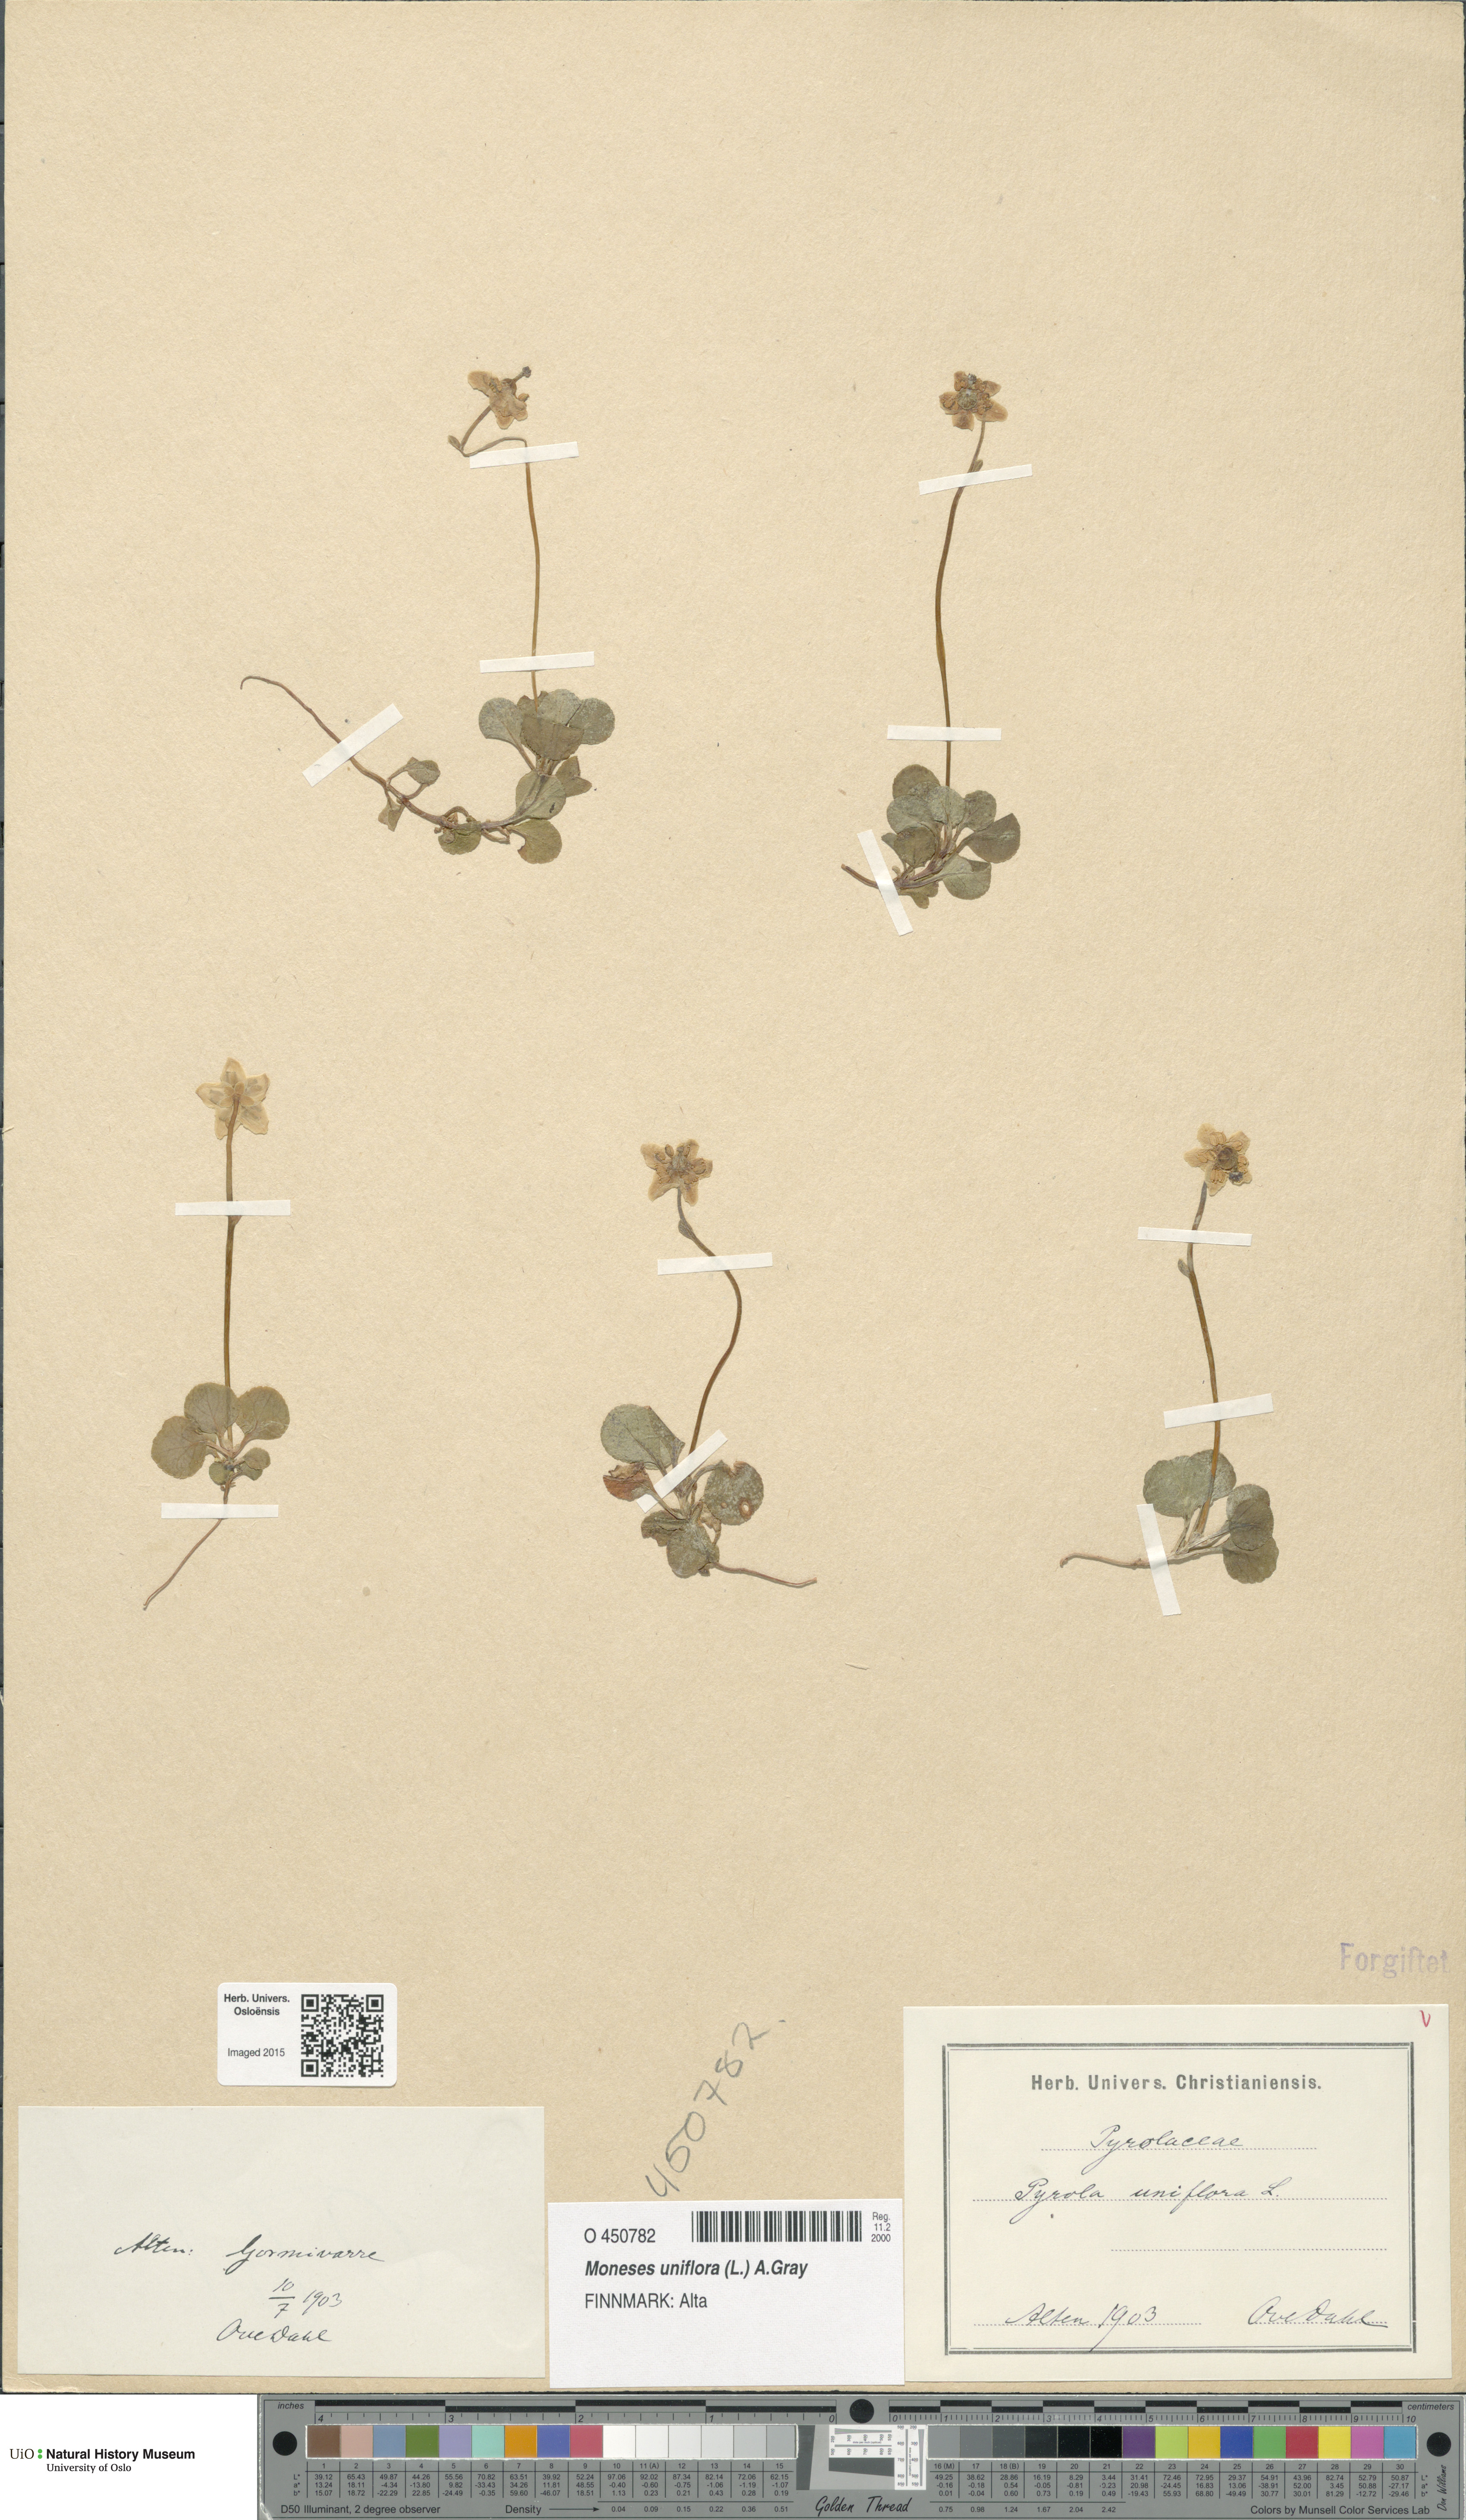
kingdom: Plantae
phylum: Tracheophyta
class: Magnoliopsida
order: Ericales
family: Ericaceae
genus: Moneses
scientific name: Moneses uniflora
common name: One-flowered wintergreen
